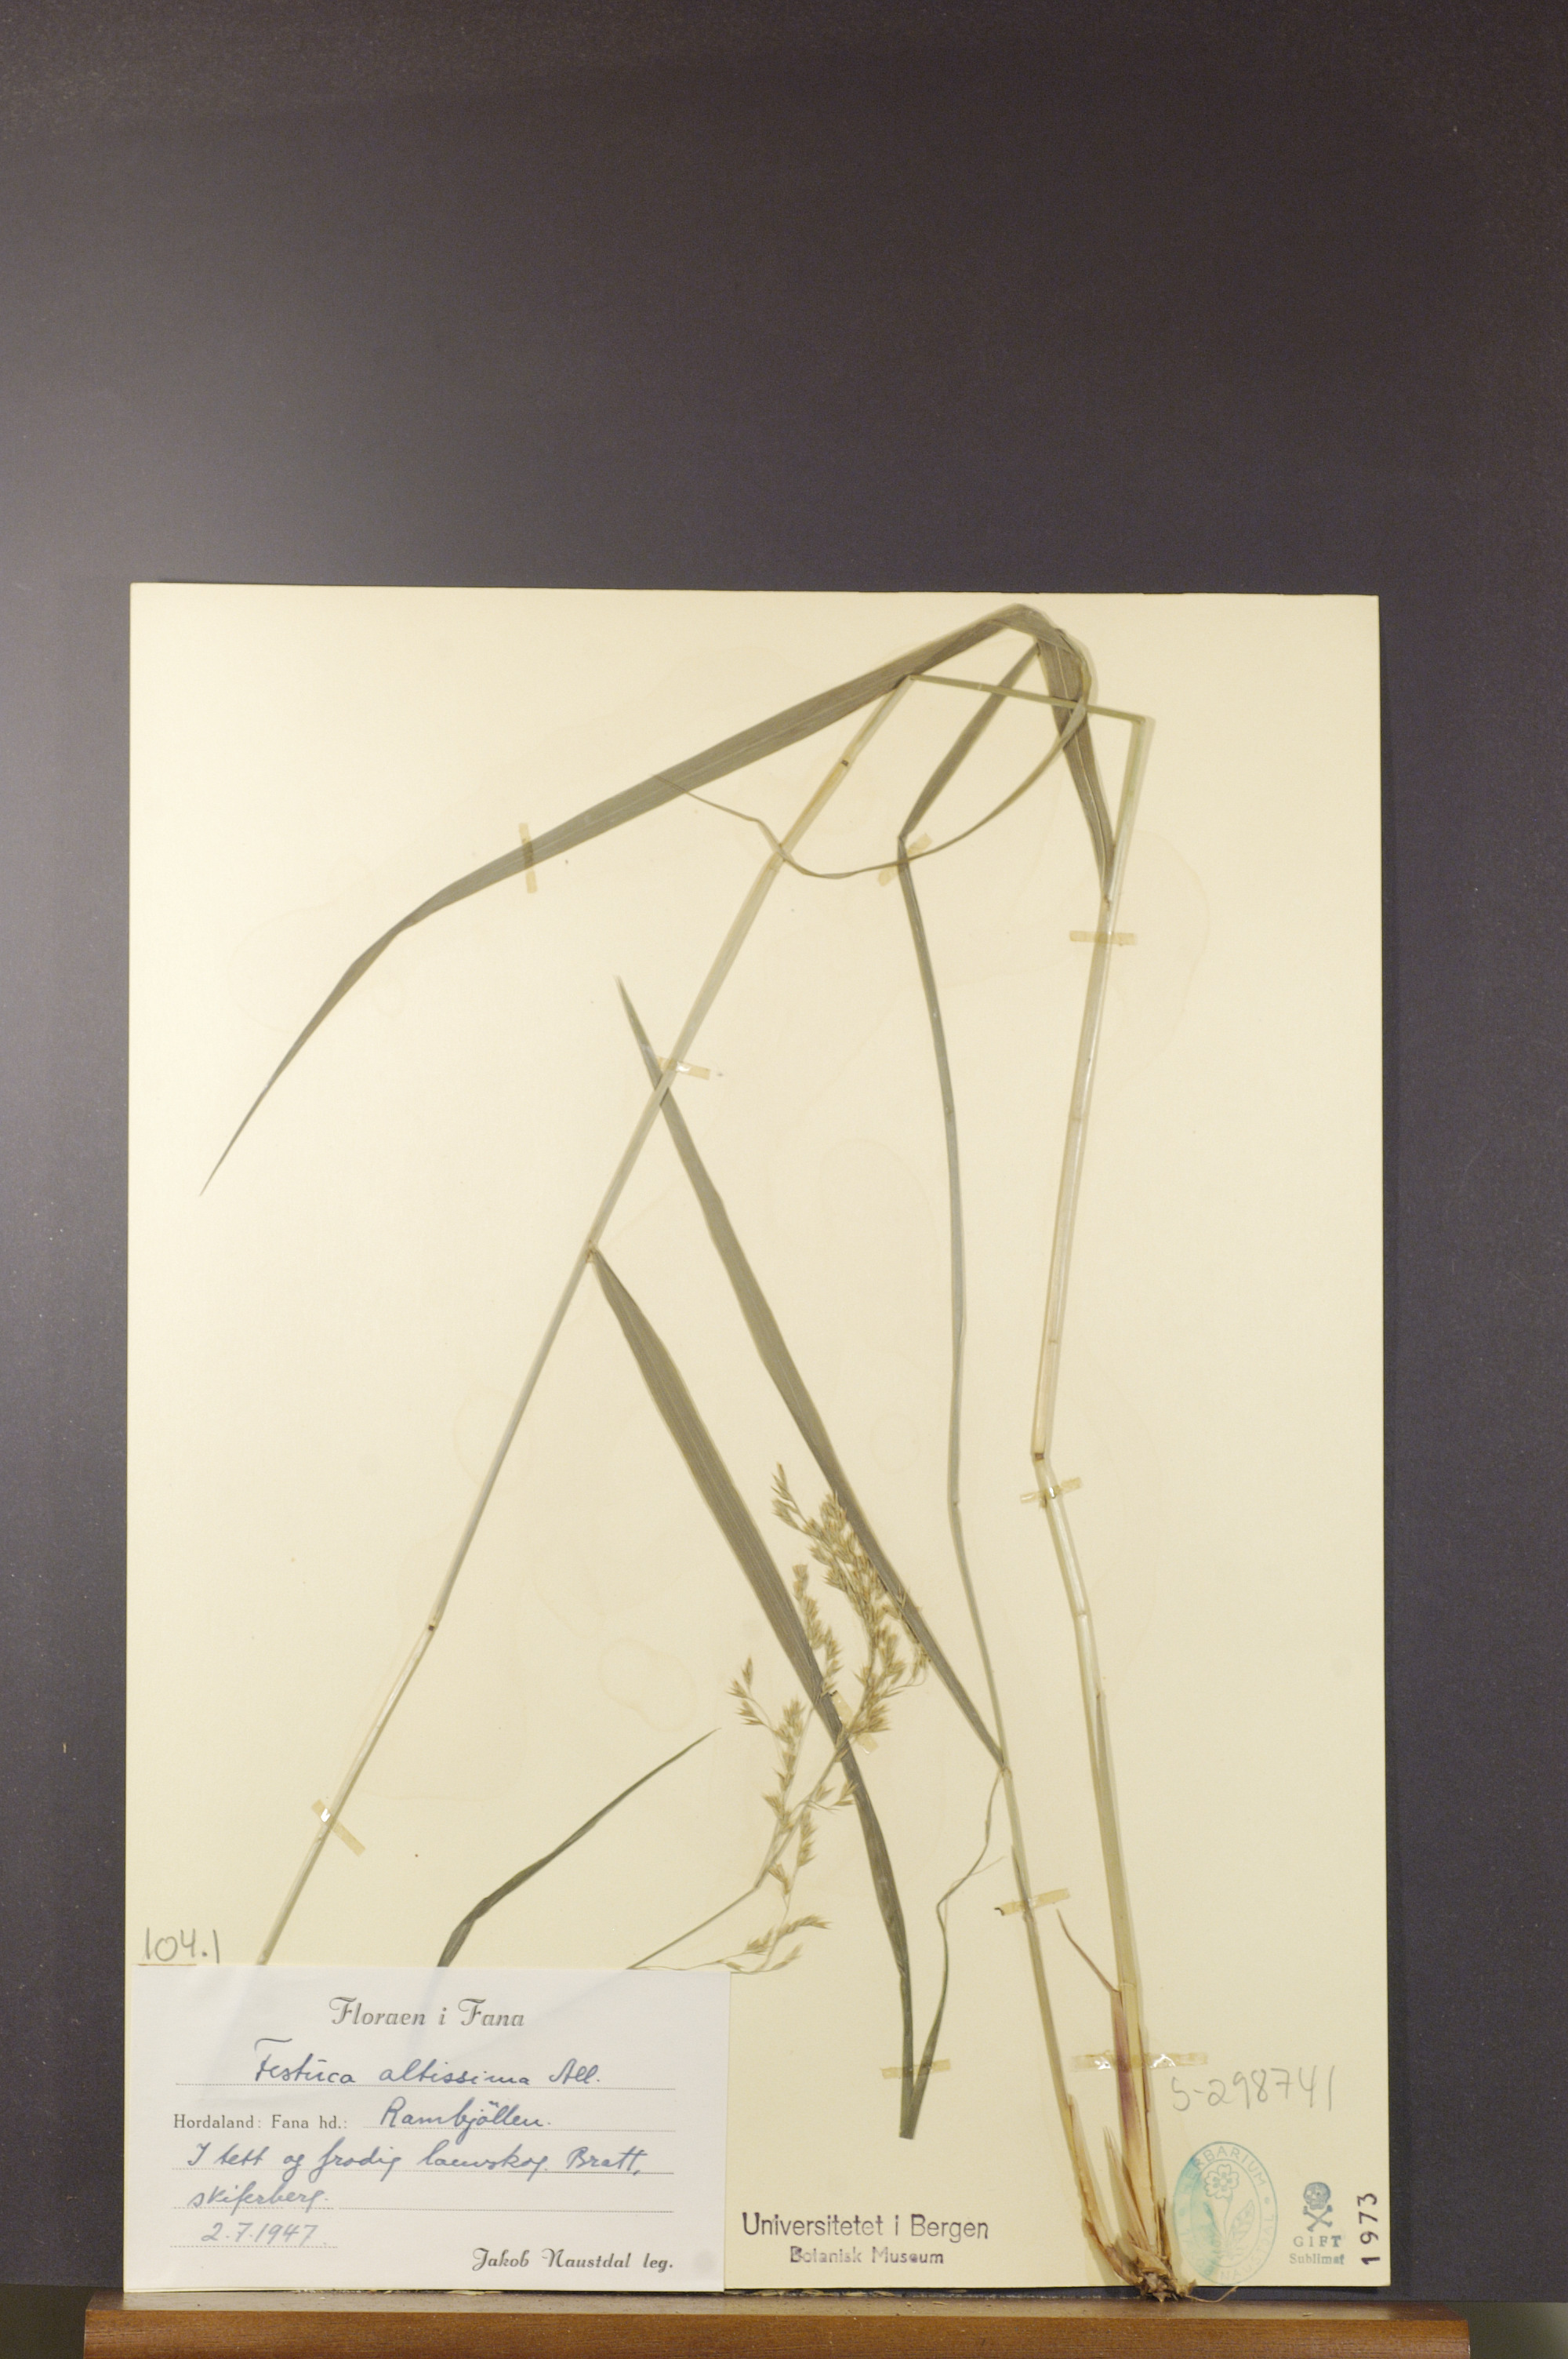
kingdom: Plantae
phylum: Tracheophyta
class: Liliopsida
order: Poales
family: Poaceae
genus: Festuca
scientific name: Festuca altissima
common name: Wood fescue
